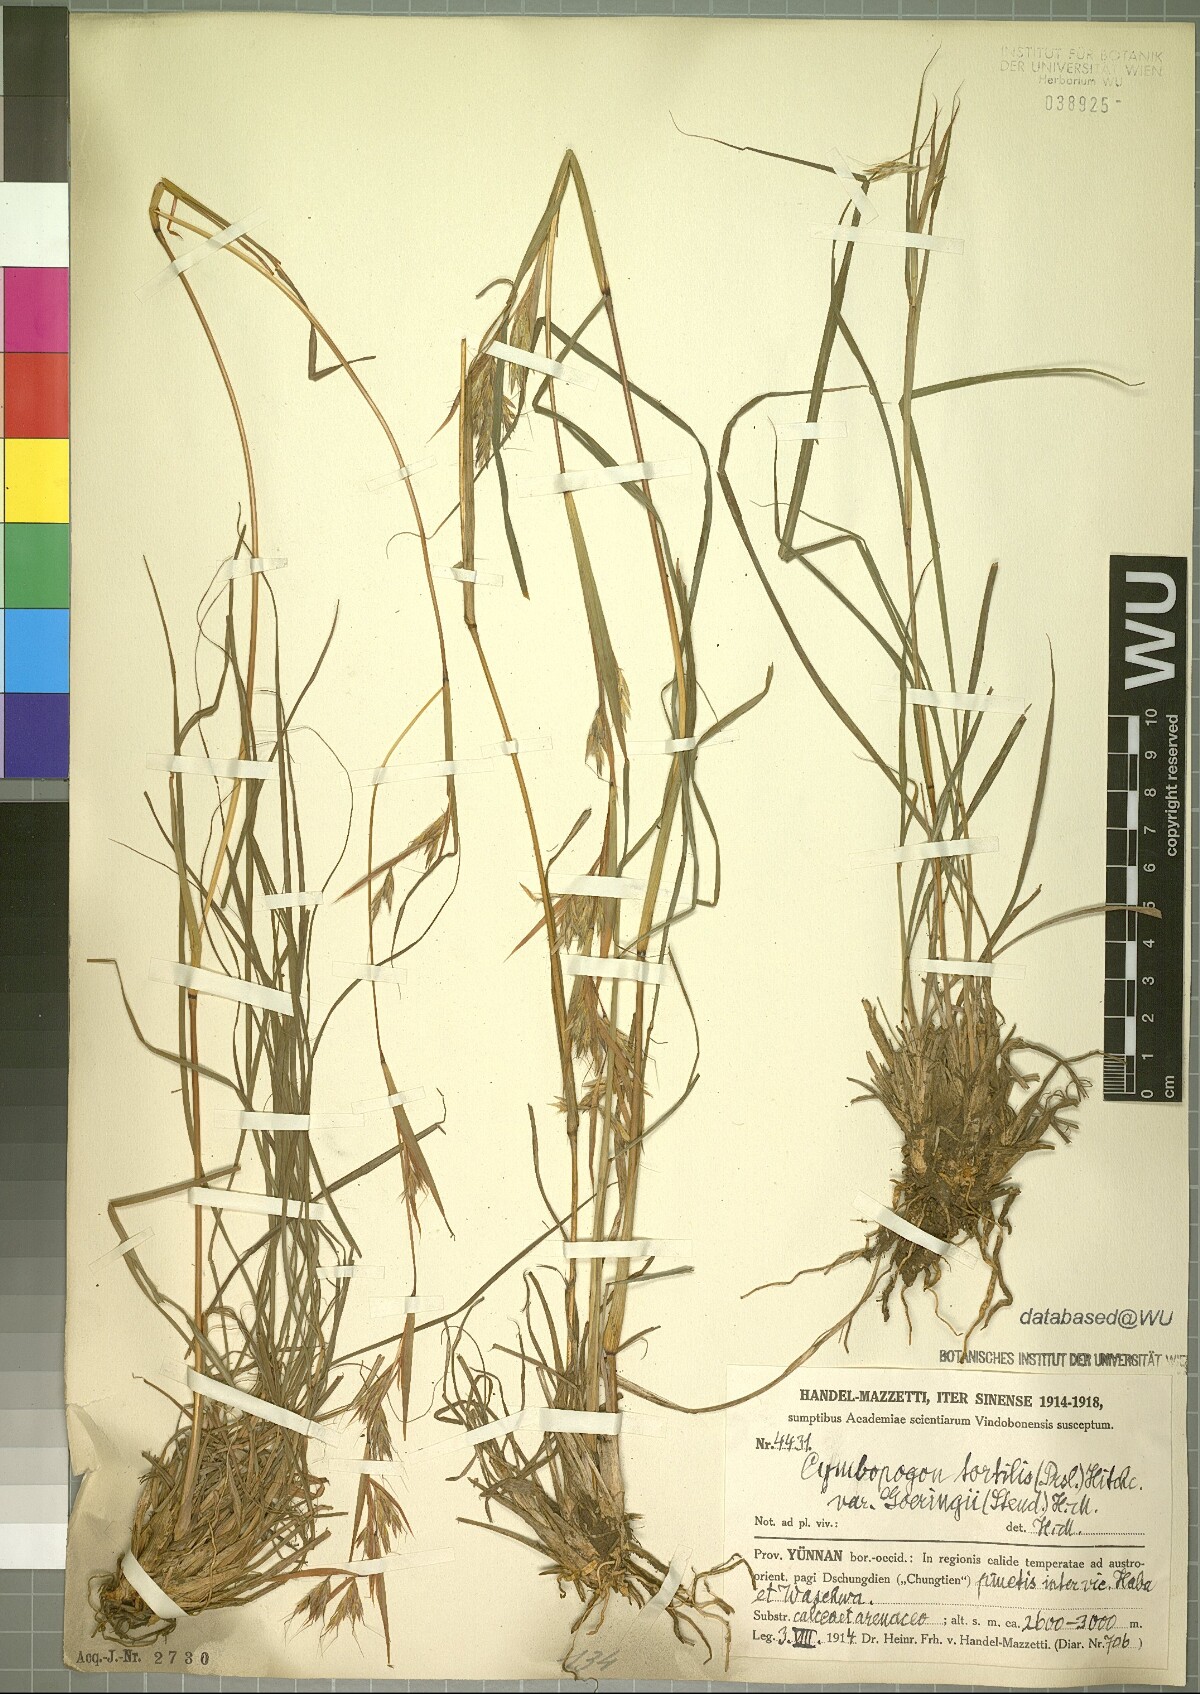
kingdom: Plantae
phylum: Tracheophyta
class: Liliopsida
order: Poales
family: Poaceae
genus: Cymbopogon
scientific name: Cymbopogon tortilis
